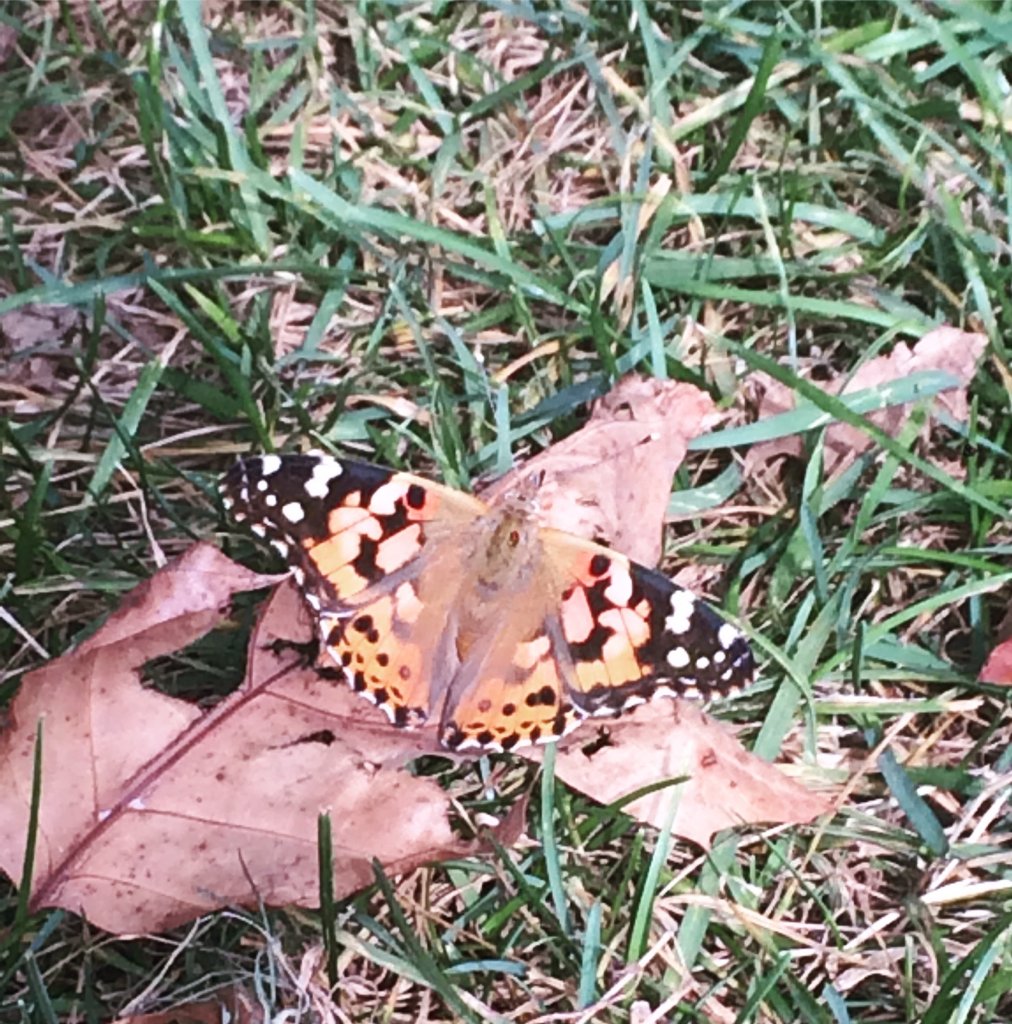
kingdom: Animalia
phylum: Arthropoda
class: Insecta
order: Lepidoptera
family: Nymphalidae
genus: Vanessa
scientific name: Vanessa cardui
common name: Painted Lady
